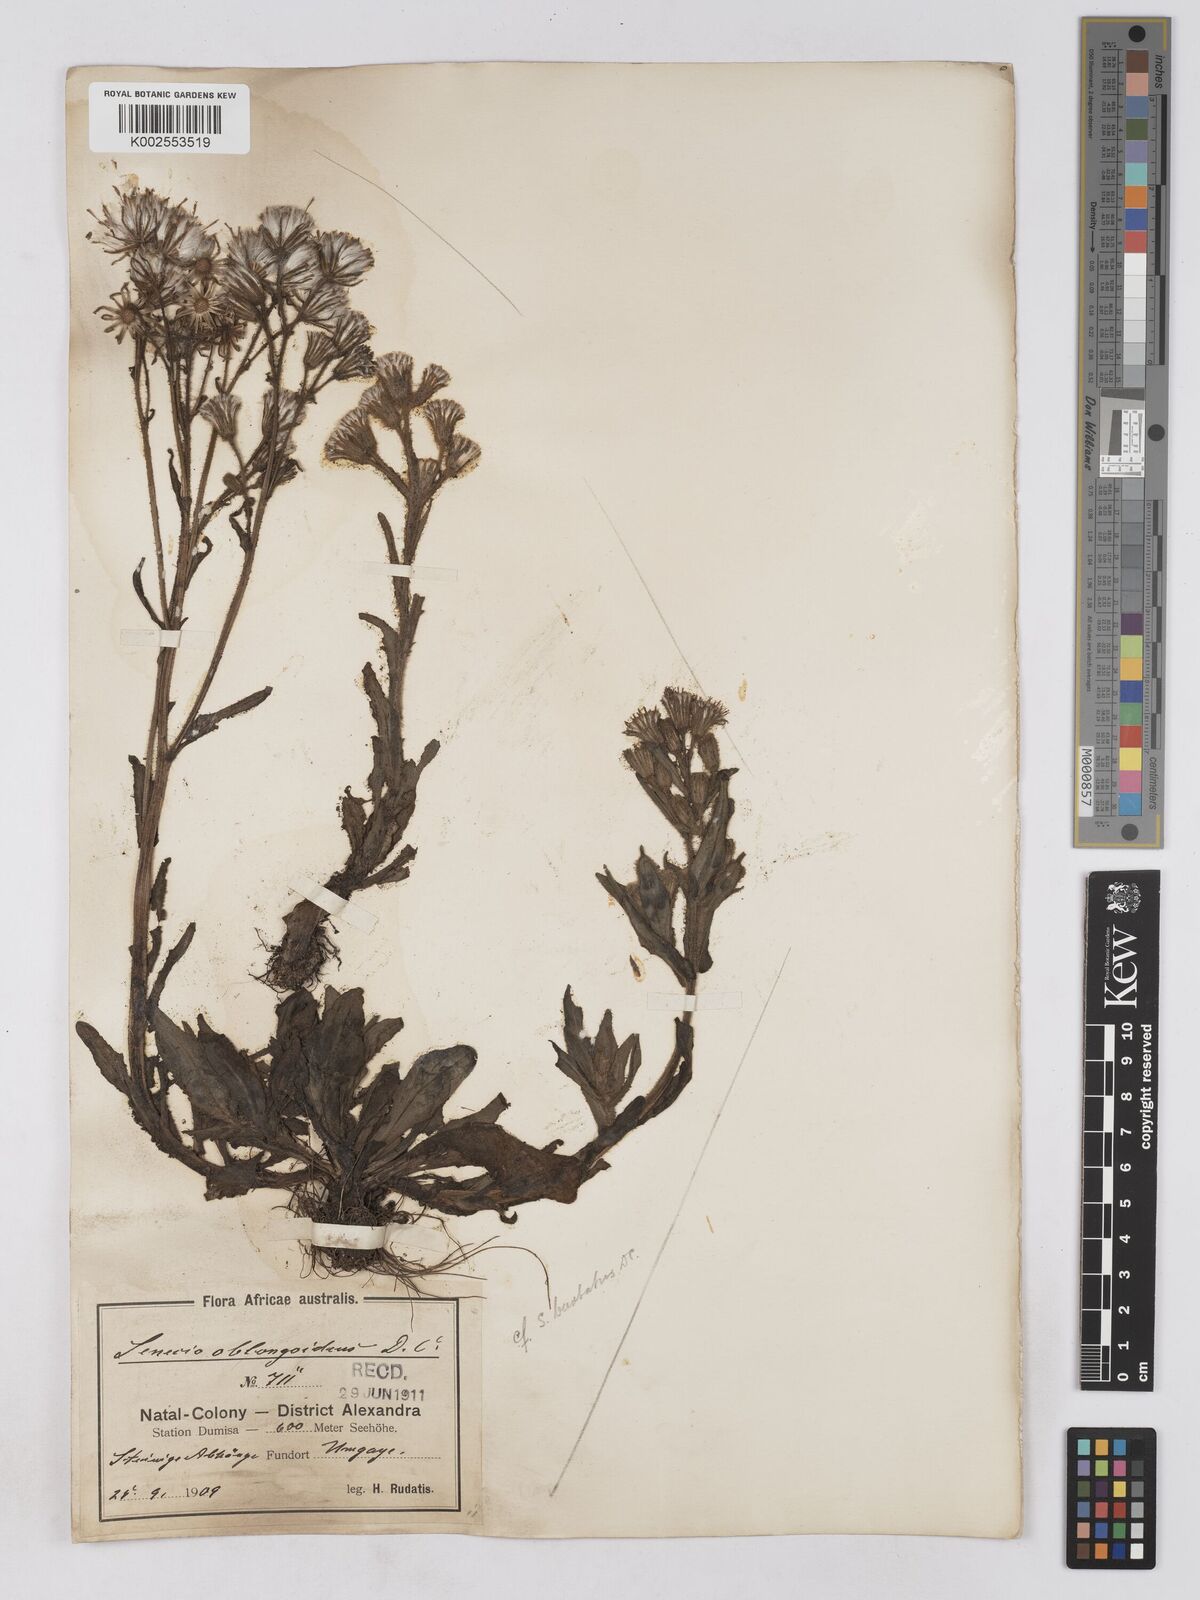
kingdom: Plantae
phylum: Tracheophyta
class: Magnoliopsida
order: Asterales
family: Asteraceae
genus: Senecio
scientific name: Senecio barbatus
